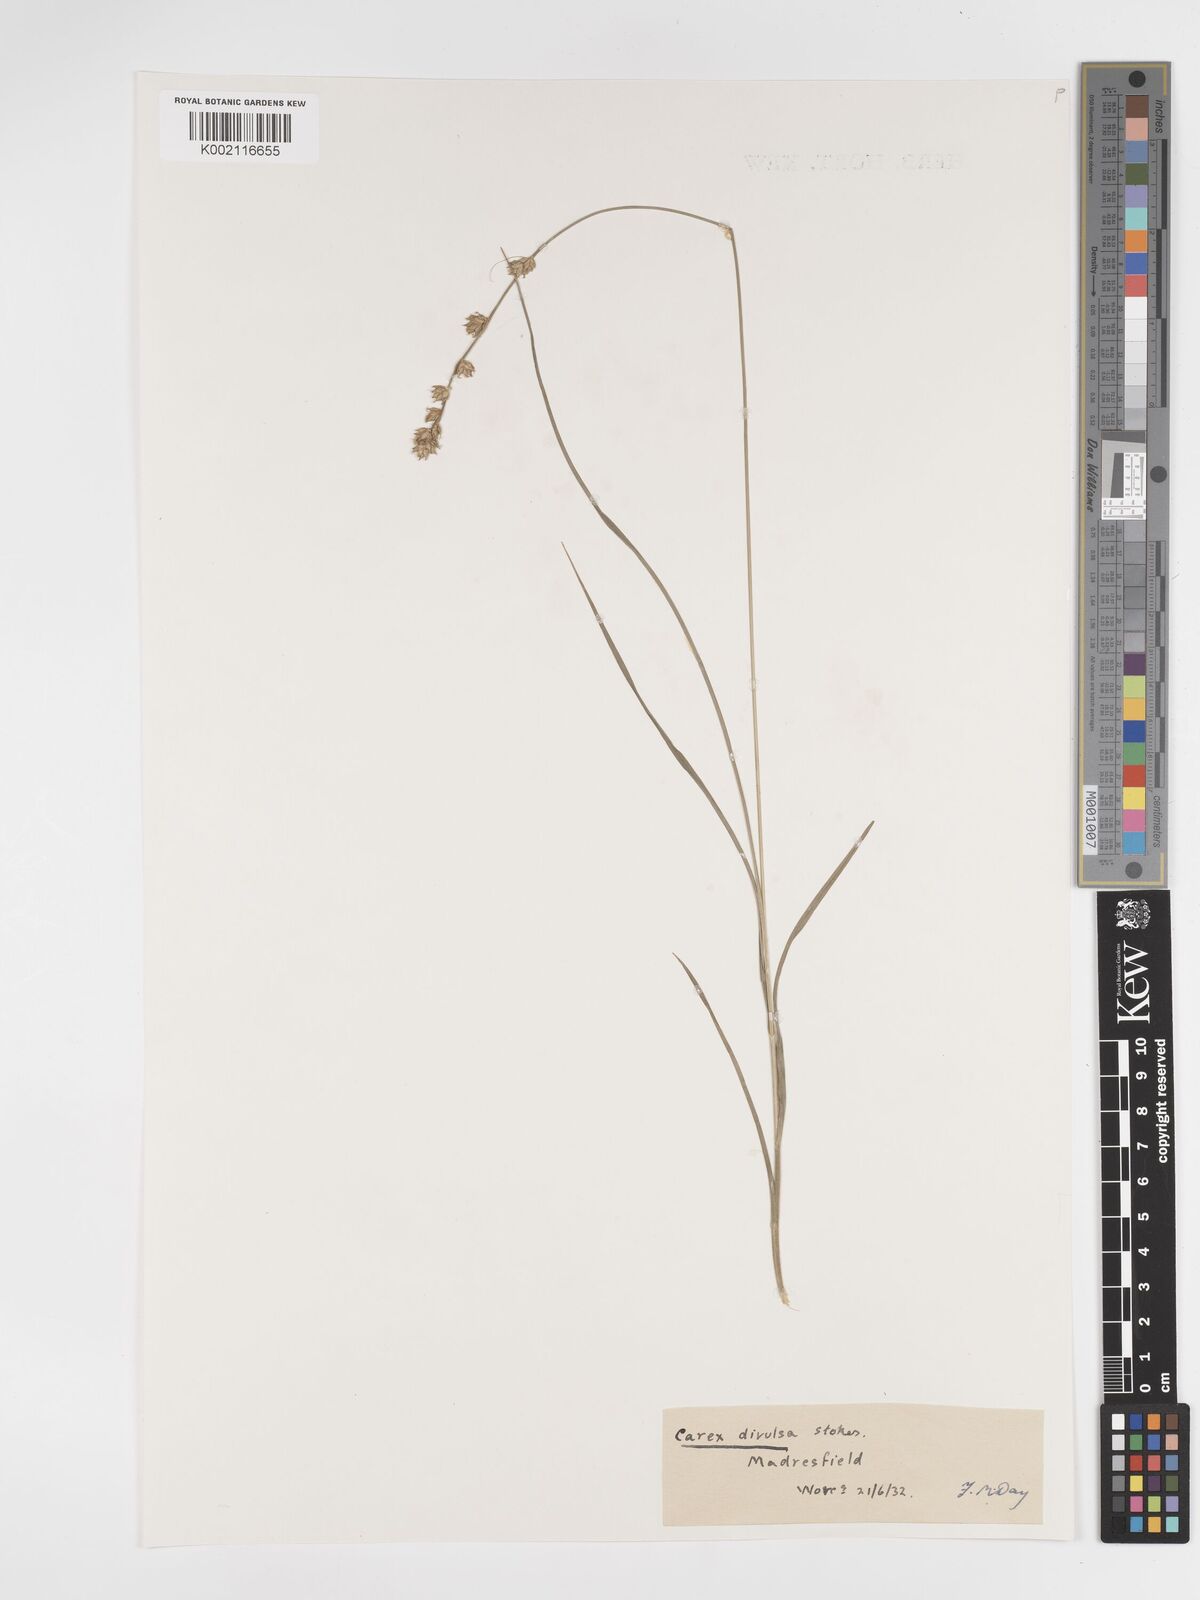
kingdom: Plantae
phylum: Tracheophyta
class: Liliopsida
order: Poales
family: Cyperaceae
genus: Carex
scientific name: Carex divulsa
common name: Grassland sedge
